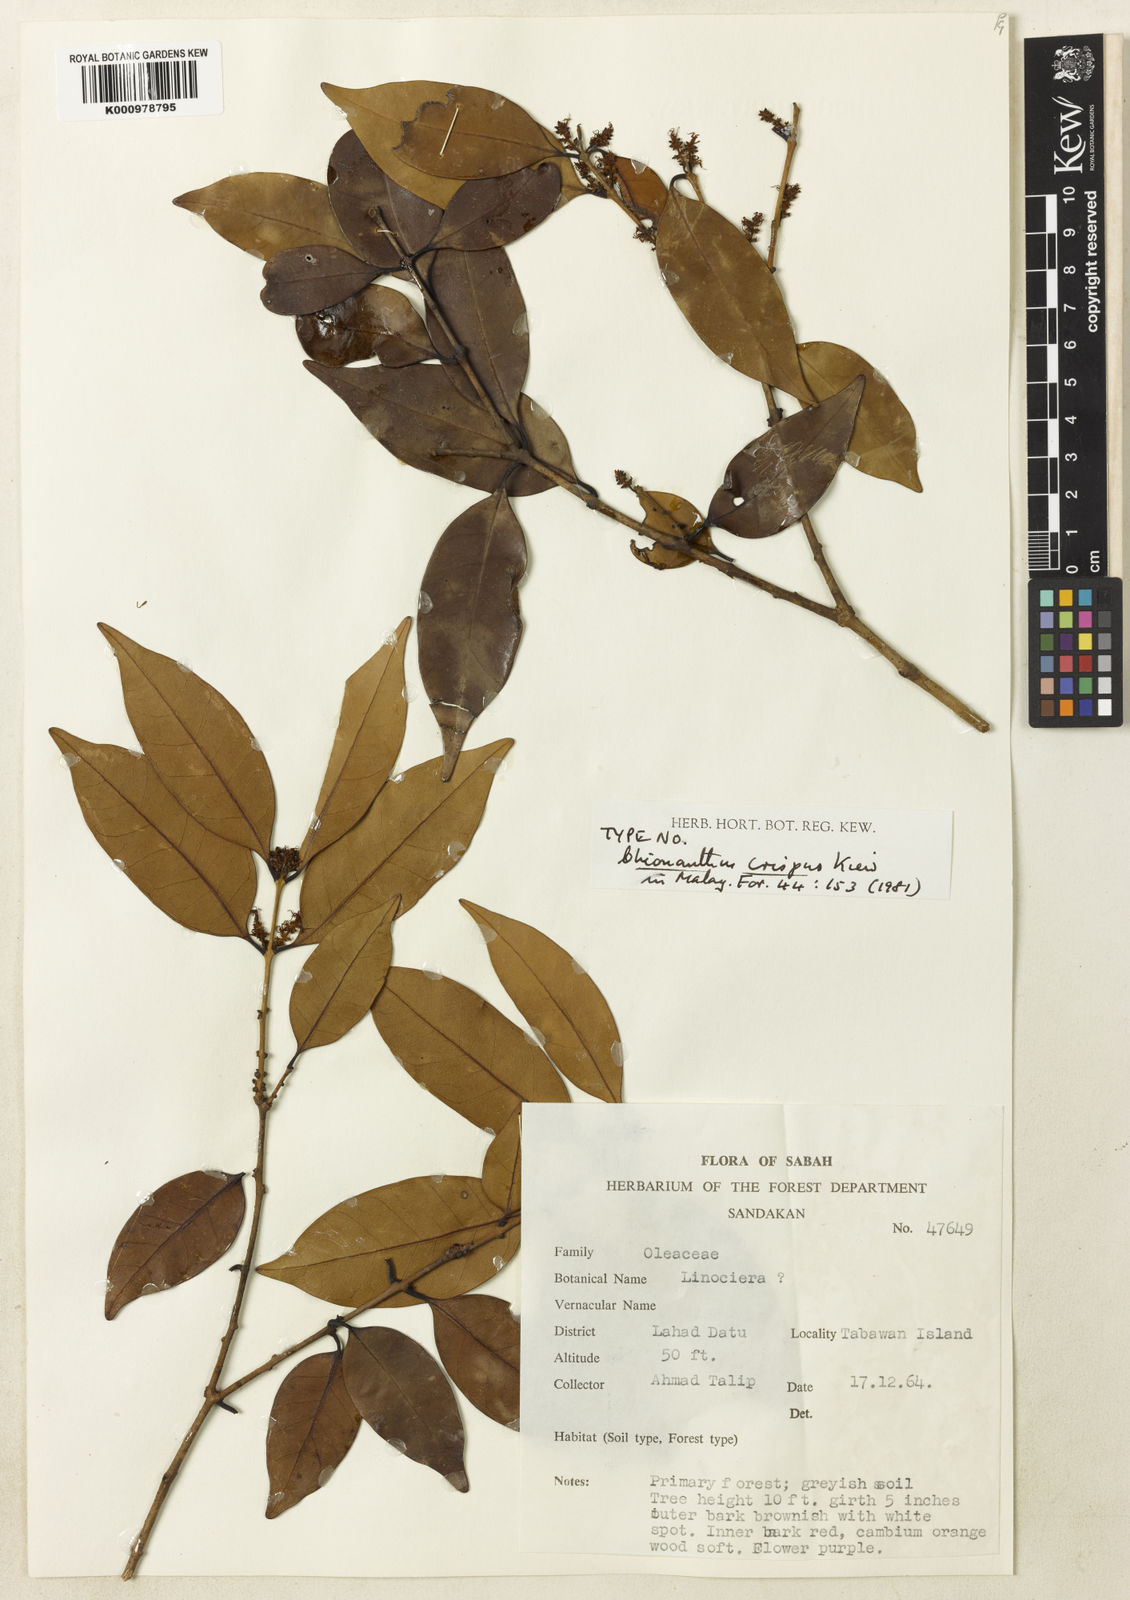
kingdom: Plantae
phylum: Tracheophyta
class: Magnoliopsida
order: Lamiales
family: Oleaceae
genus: Chionanthus
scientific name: Chionanthus crispus
